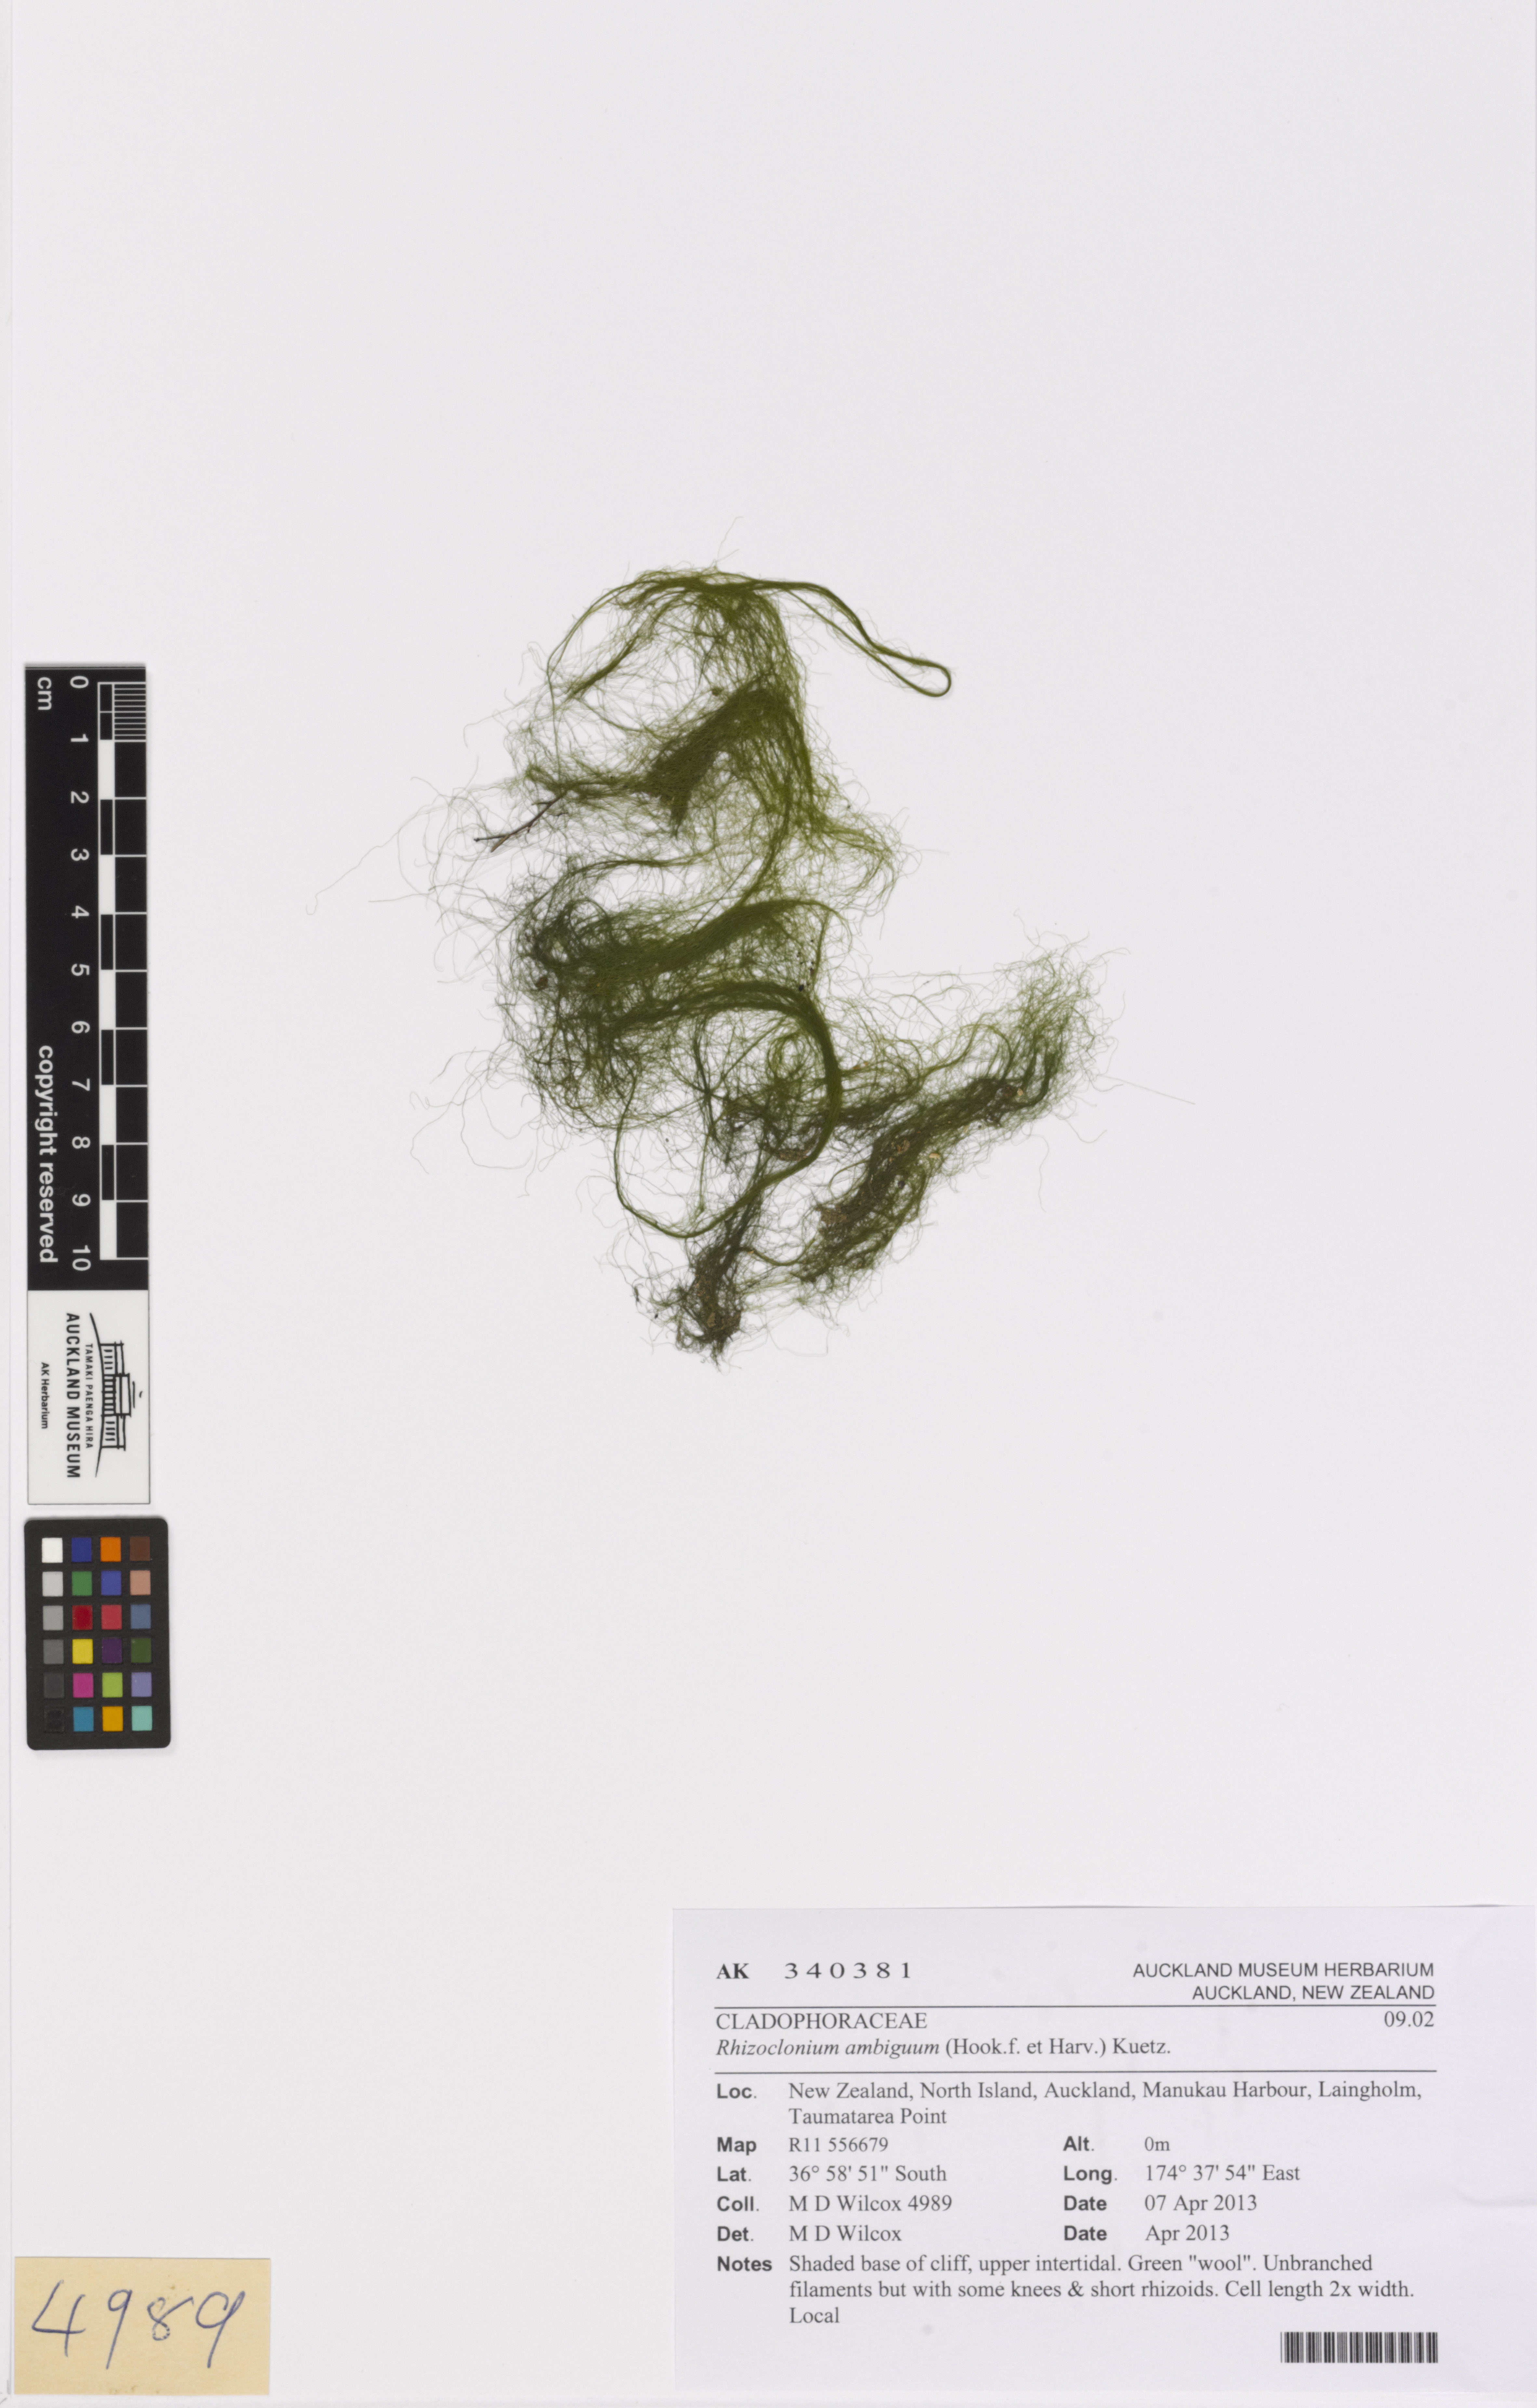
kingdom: Plantae
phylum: Chlorophyta
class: Ulvophyceae
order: Cladophorales
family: Cladophoraceae
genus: Pseudorhizoclonium
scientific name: Pseudorhizoclonium
